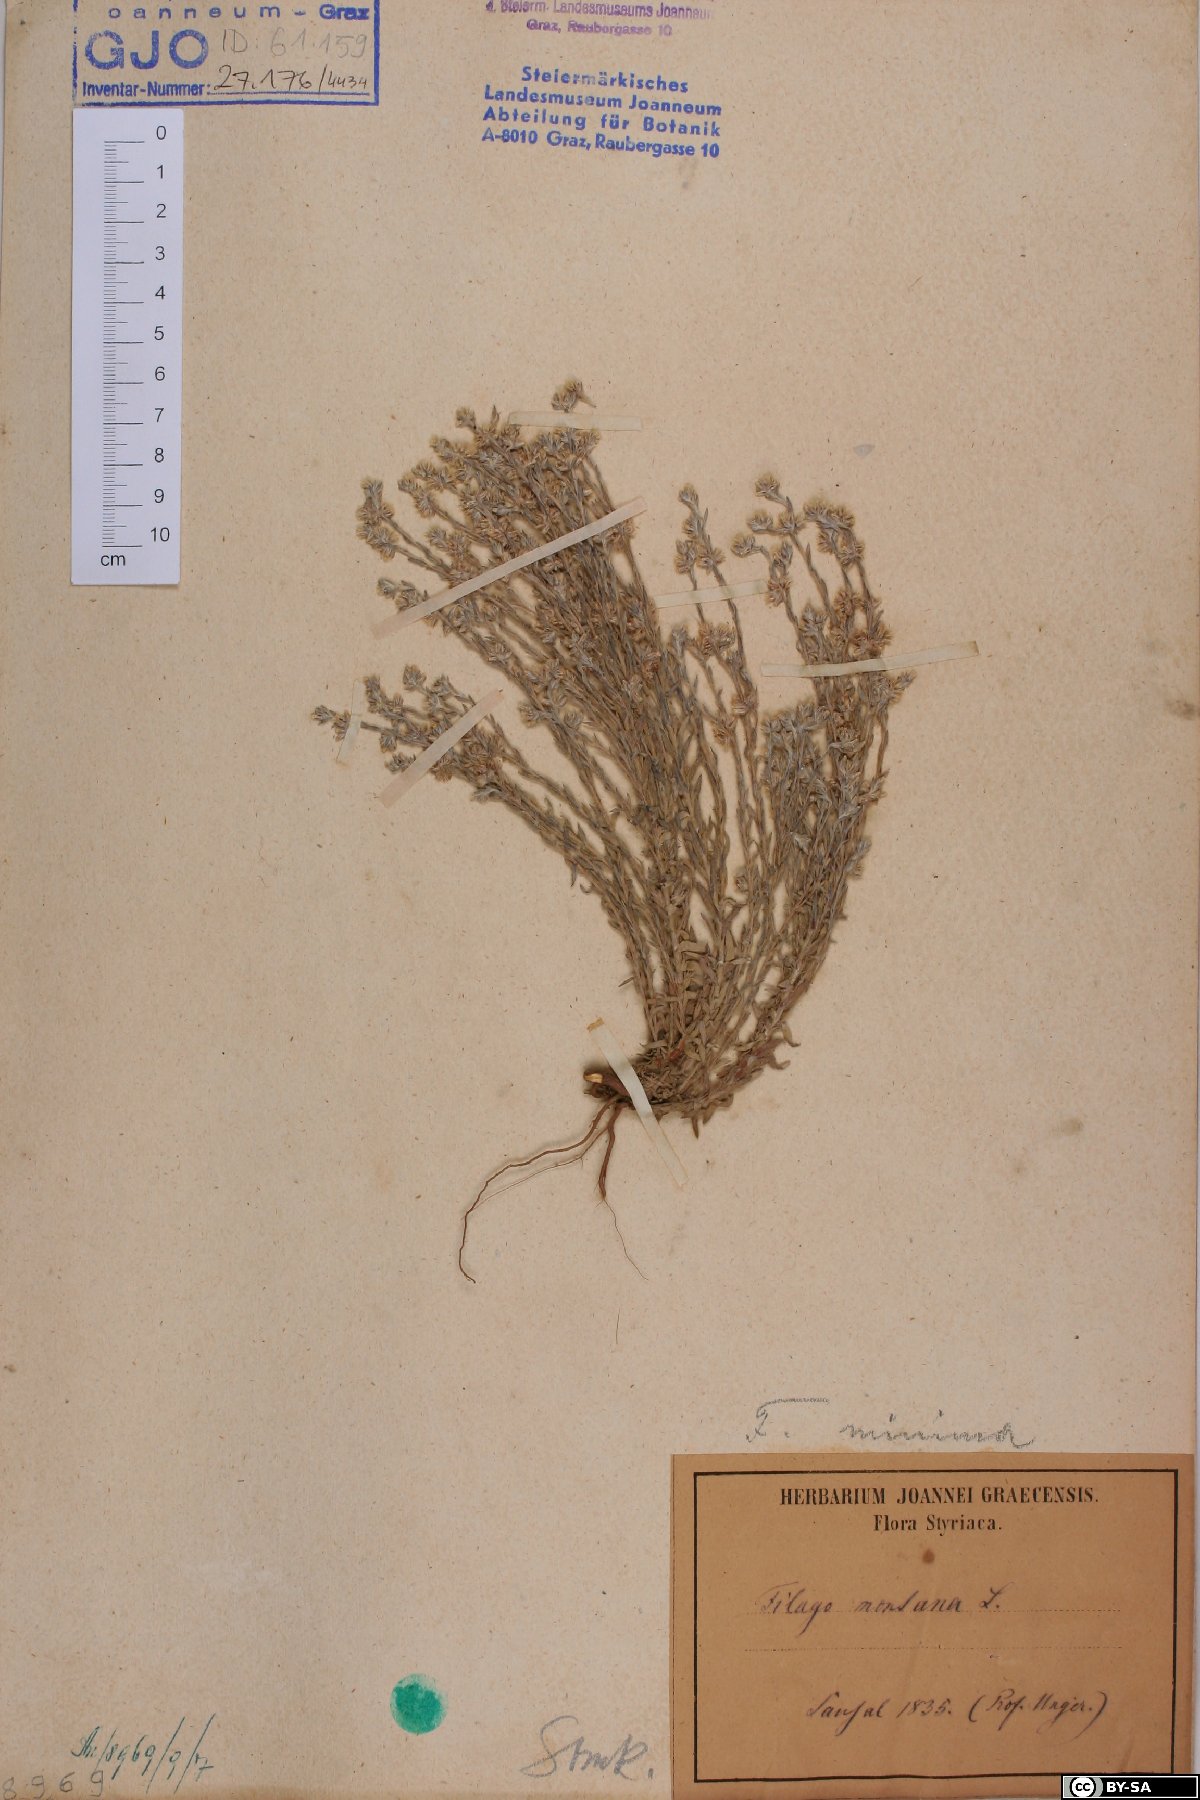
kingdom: Plantae
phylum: Tracheophyta
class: Magnoliopsida
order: Asterales
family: Asteraceae
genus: Logfia
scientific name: Logfia minima
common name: Little cottonrose
